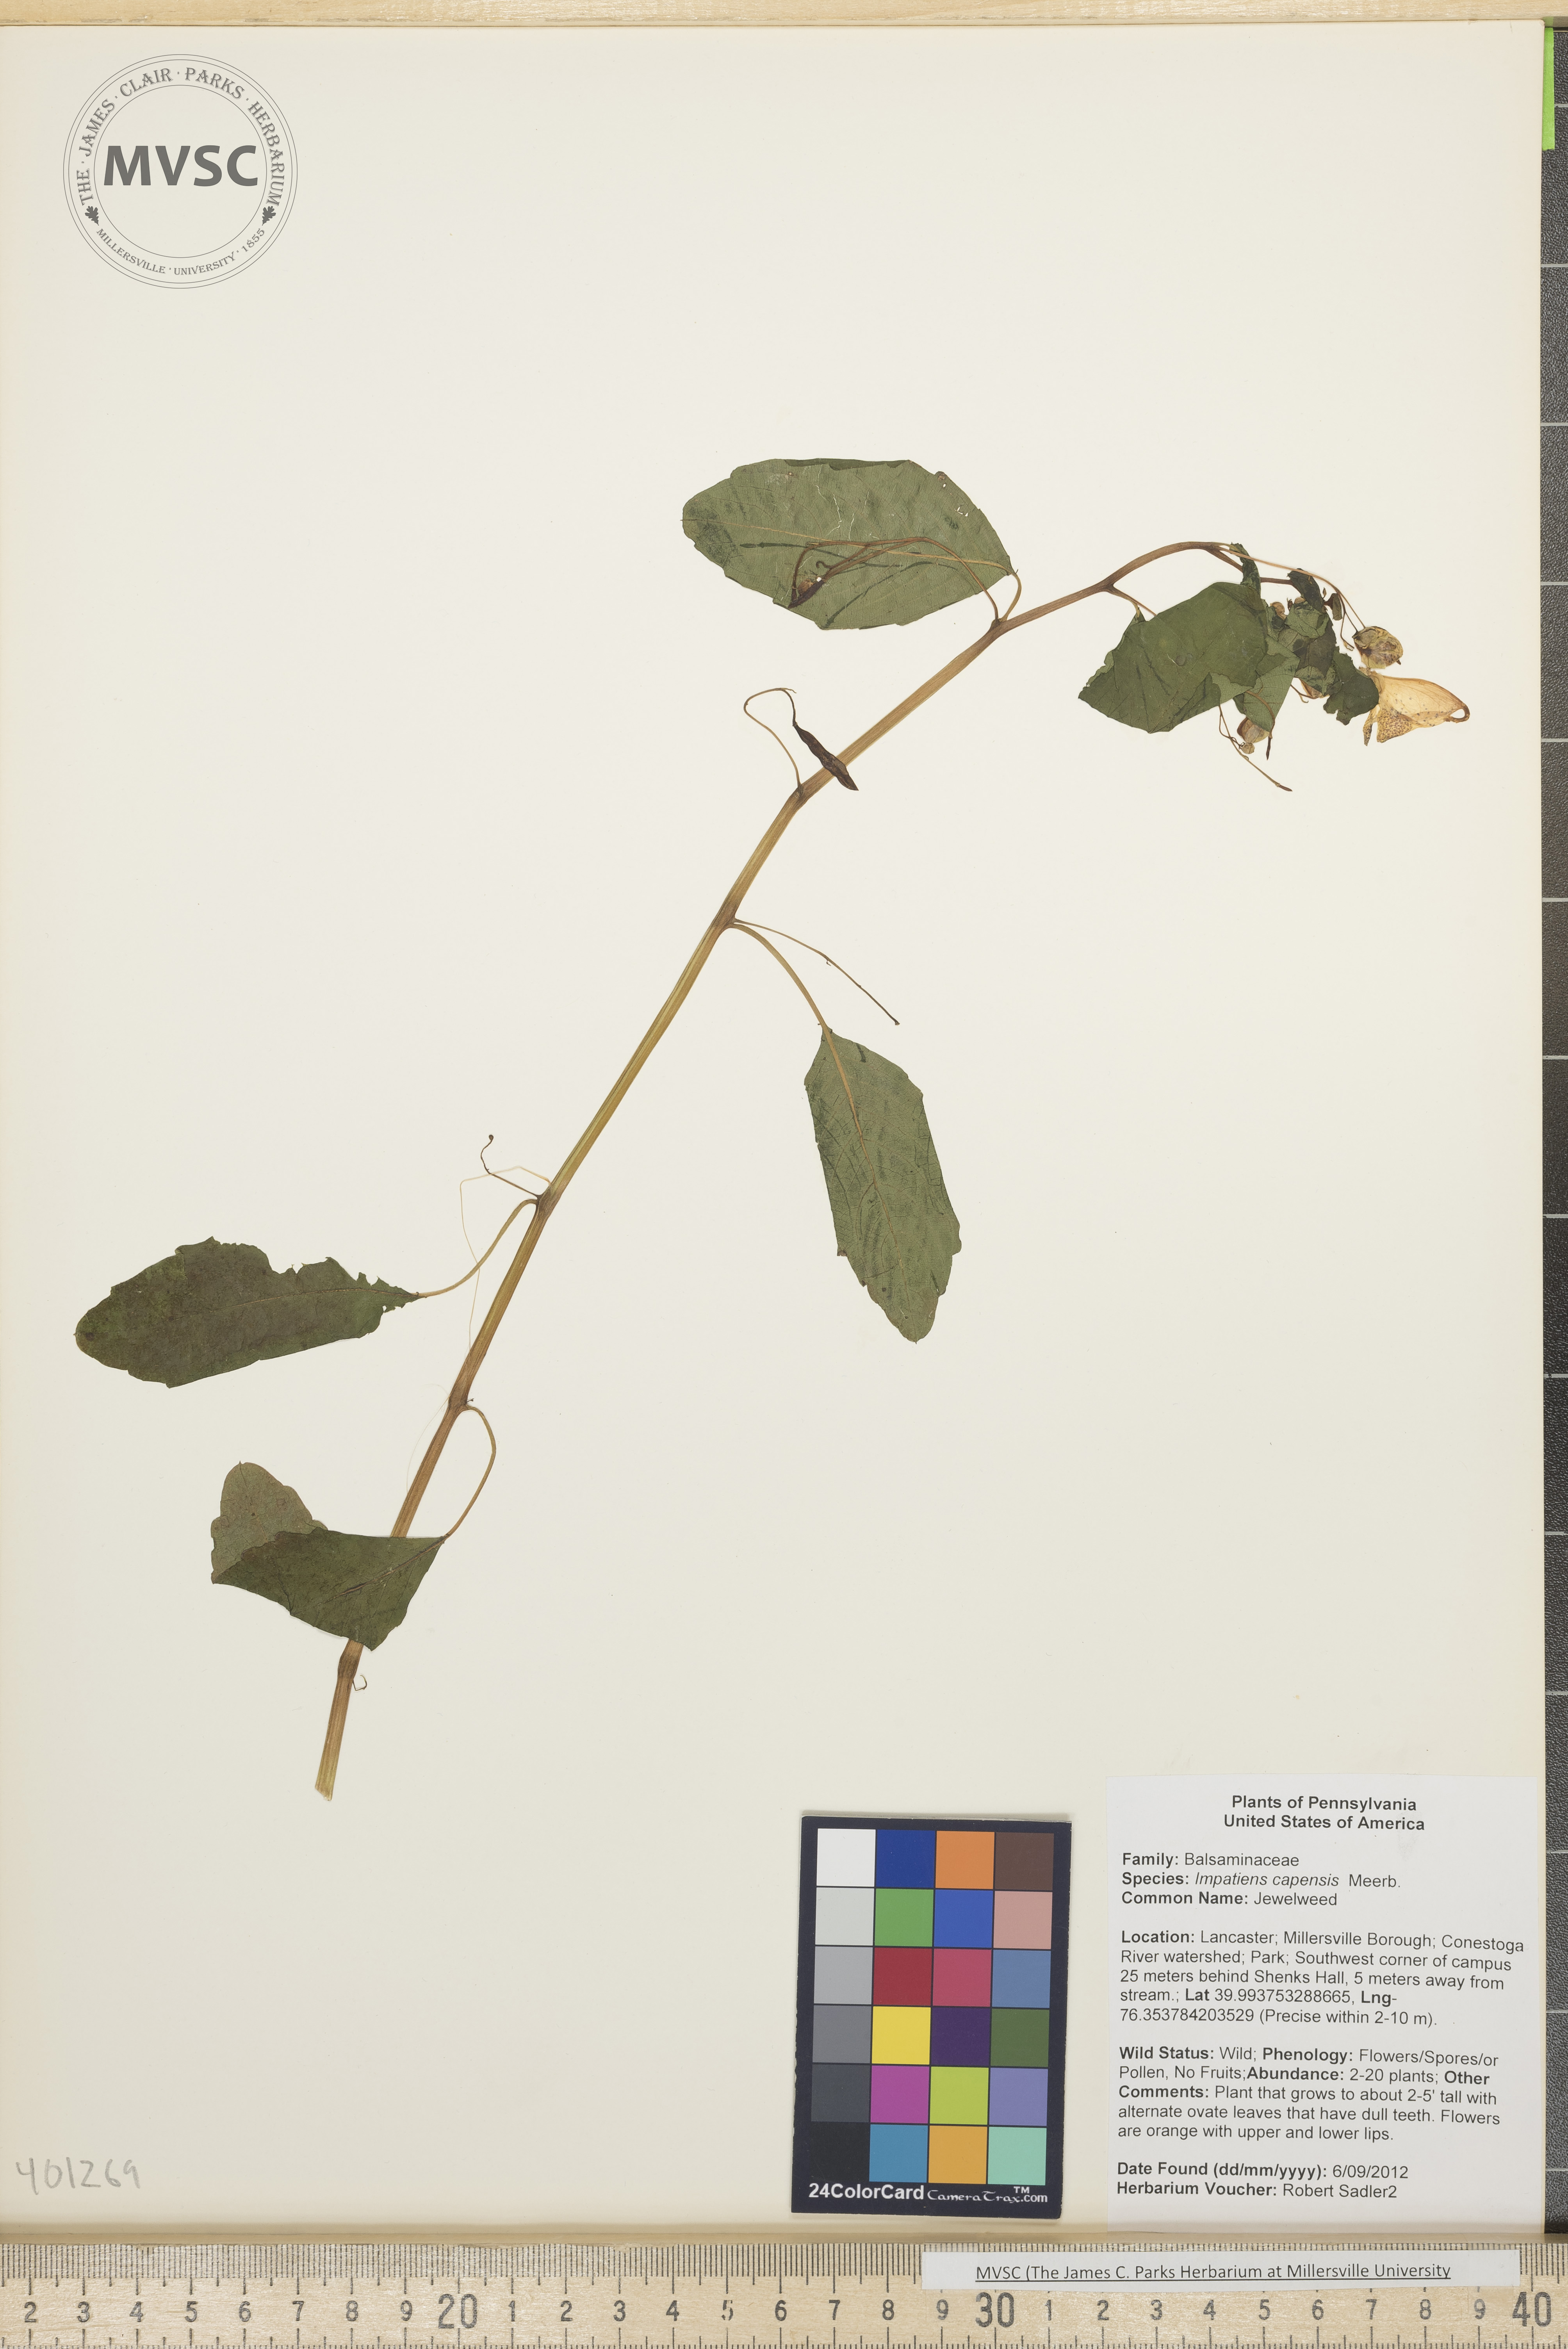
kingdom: Plantae
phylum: Tracheophyta
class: Magnoliopsida
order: Ericales
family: Balsaminaceae
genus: Impatiens
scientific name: Impatiens capensis
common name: Jewelweed
